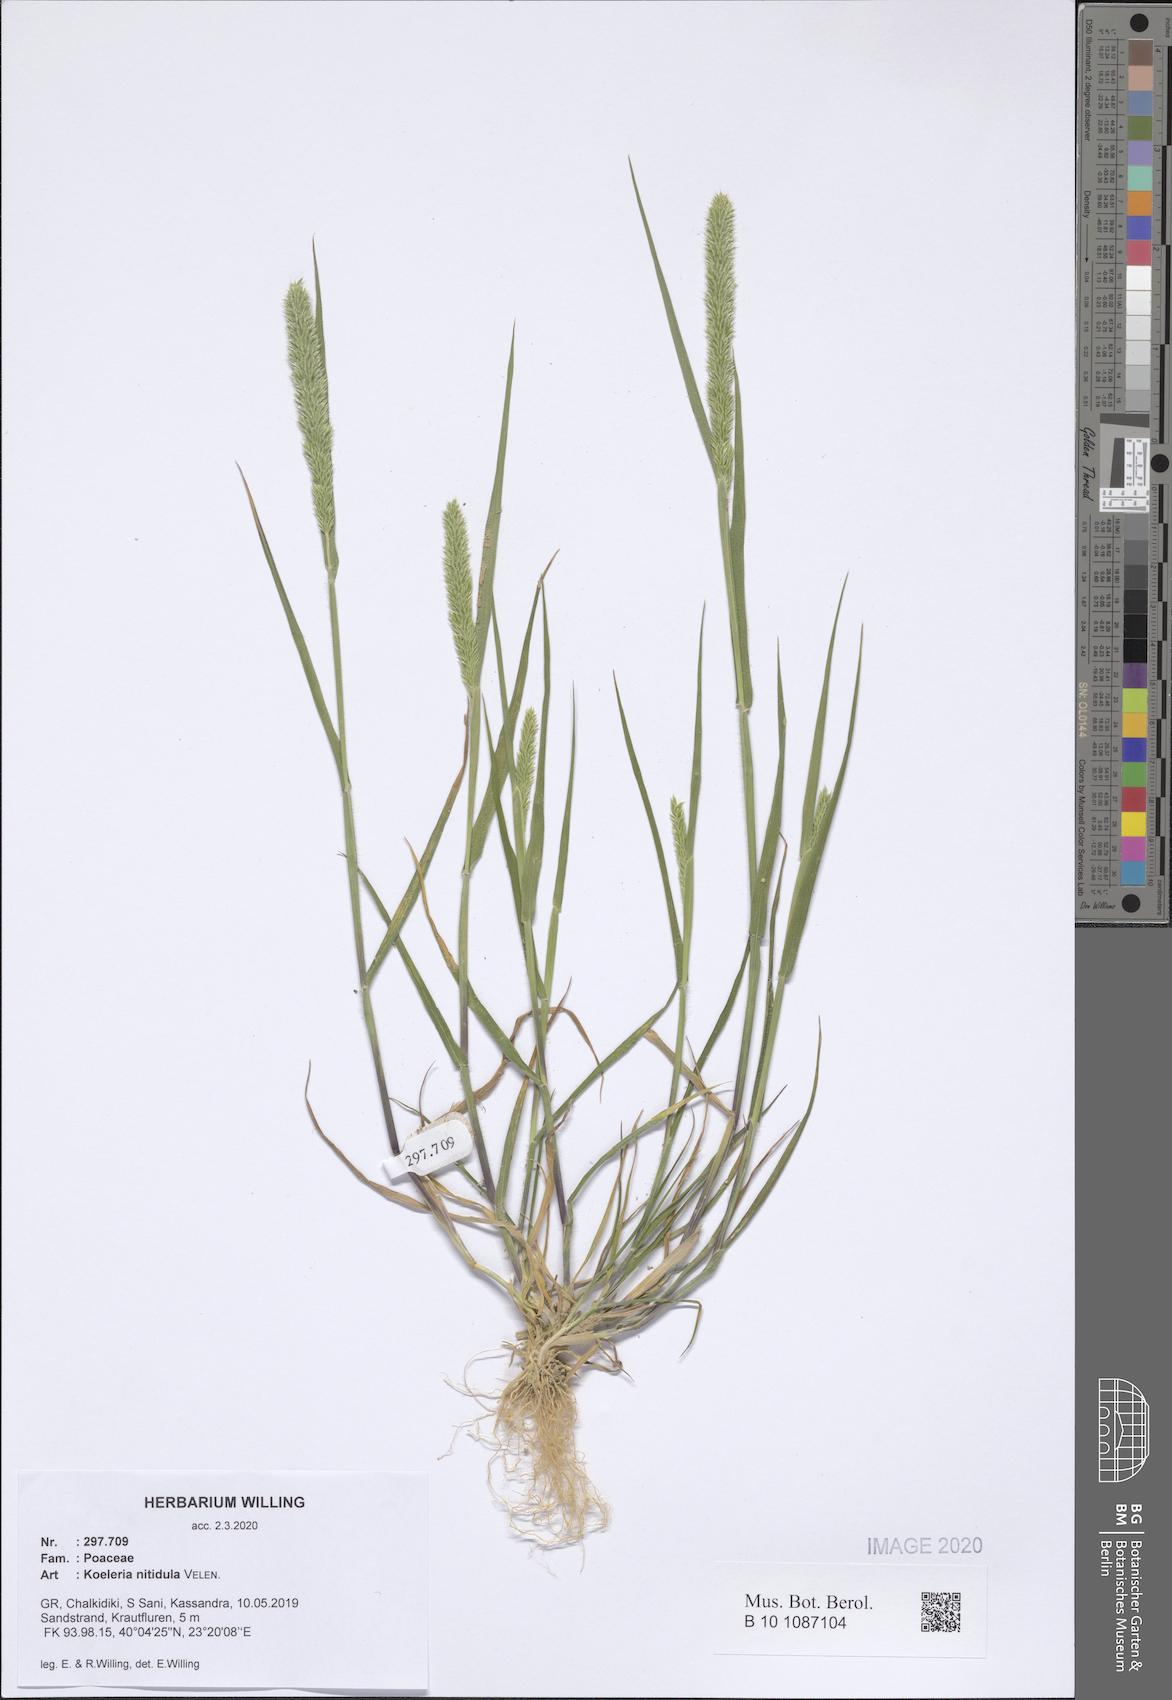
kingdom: Plantae
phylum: Tracheophyta
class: Liliopsida
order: Poales
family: Poaceae
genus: Koeleria
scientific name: Koeleria nitidula
